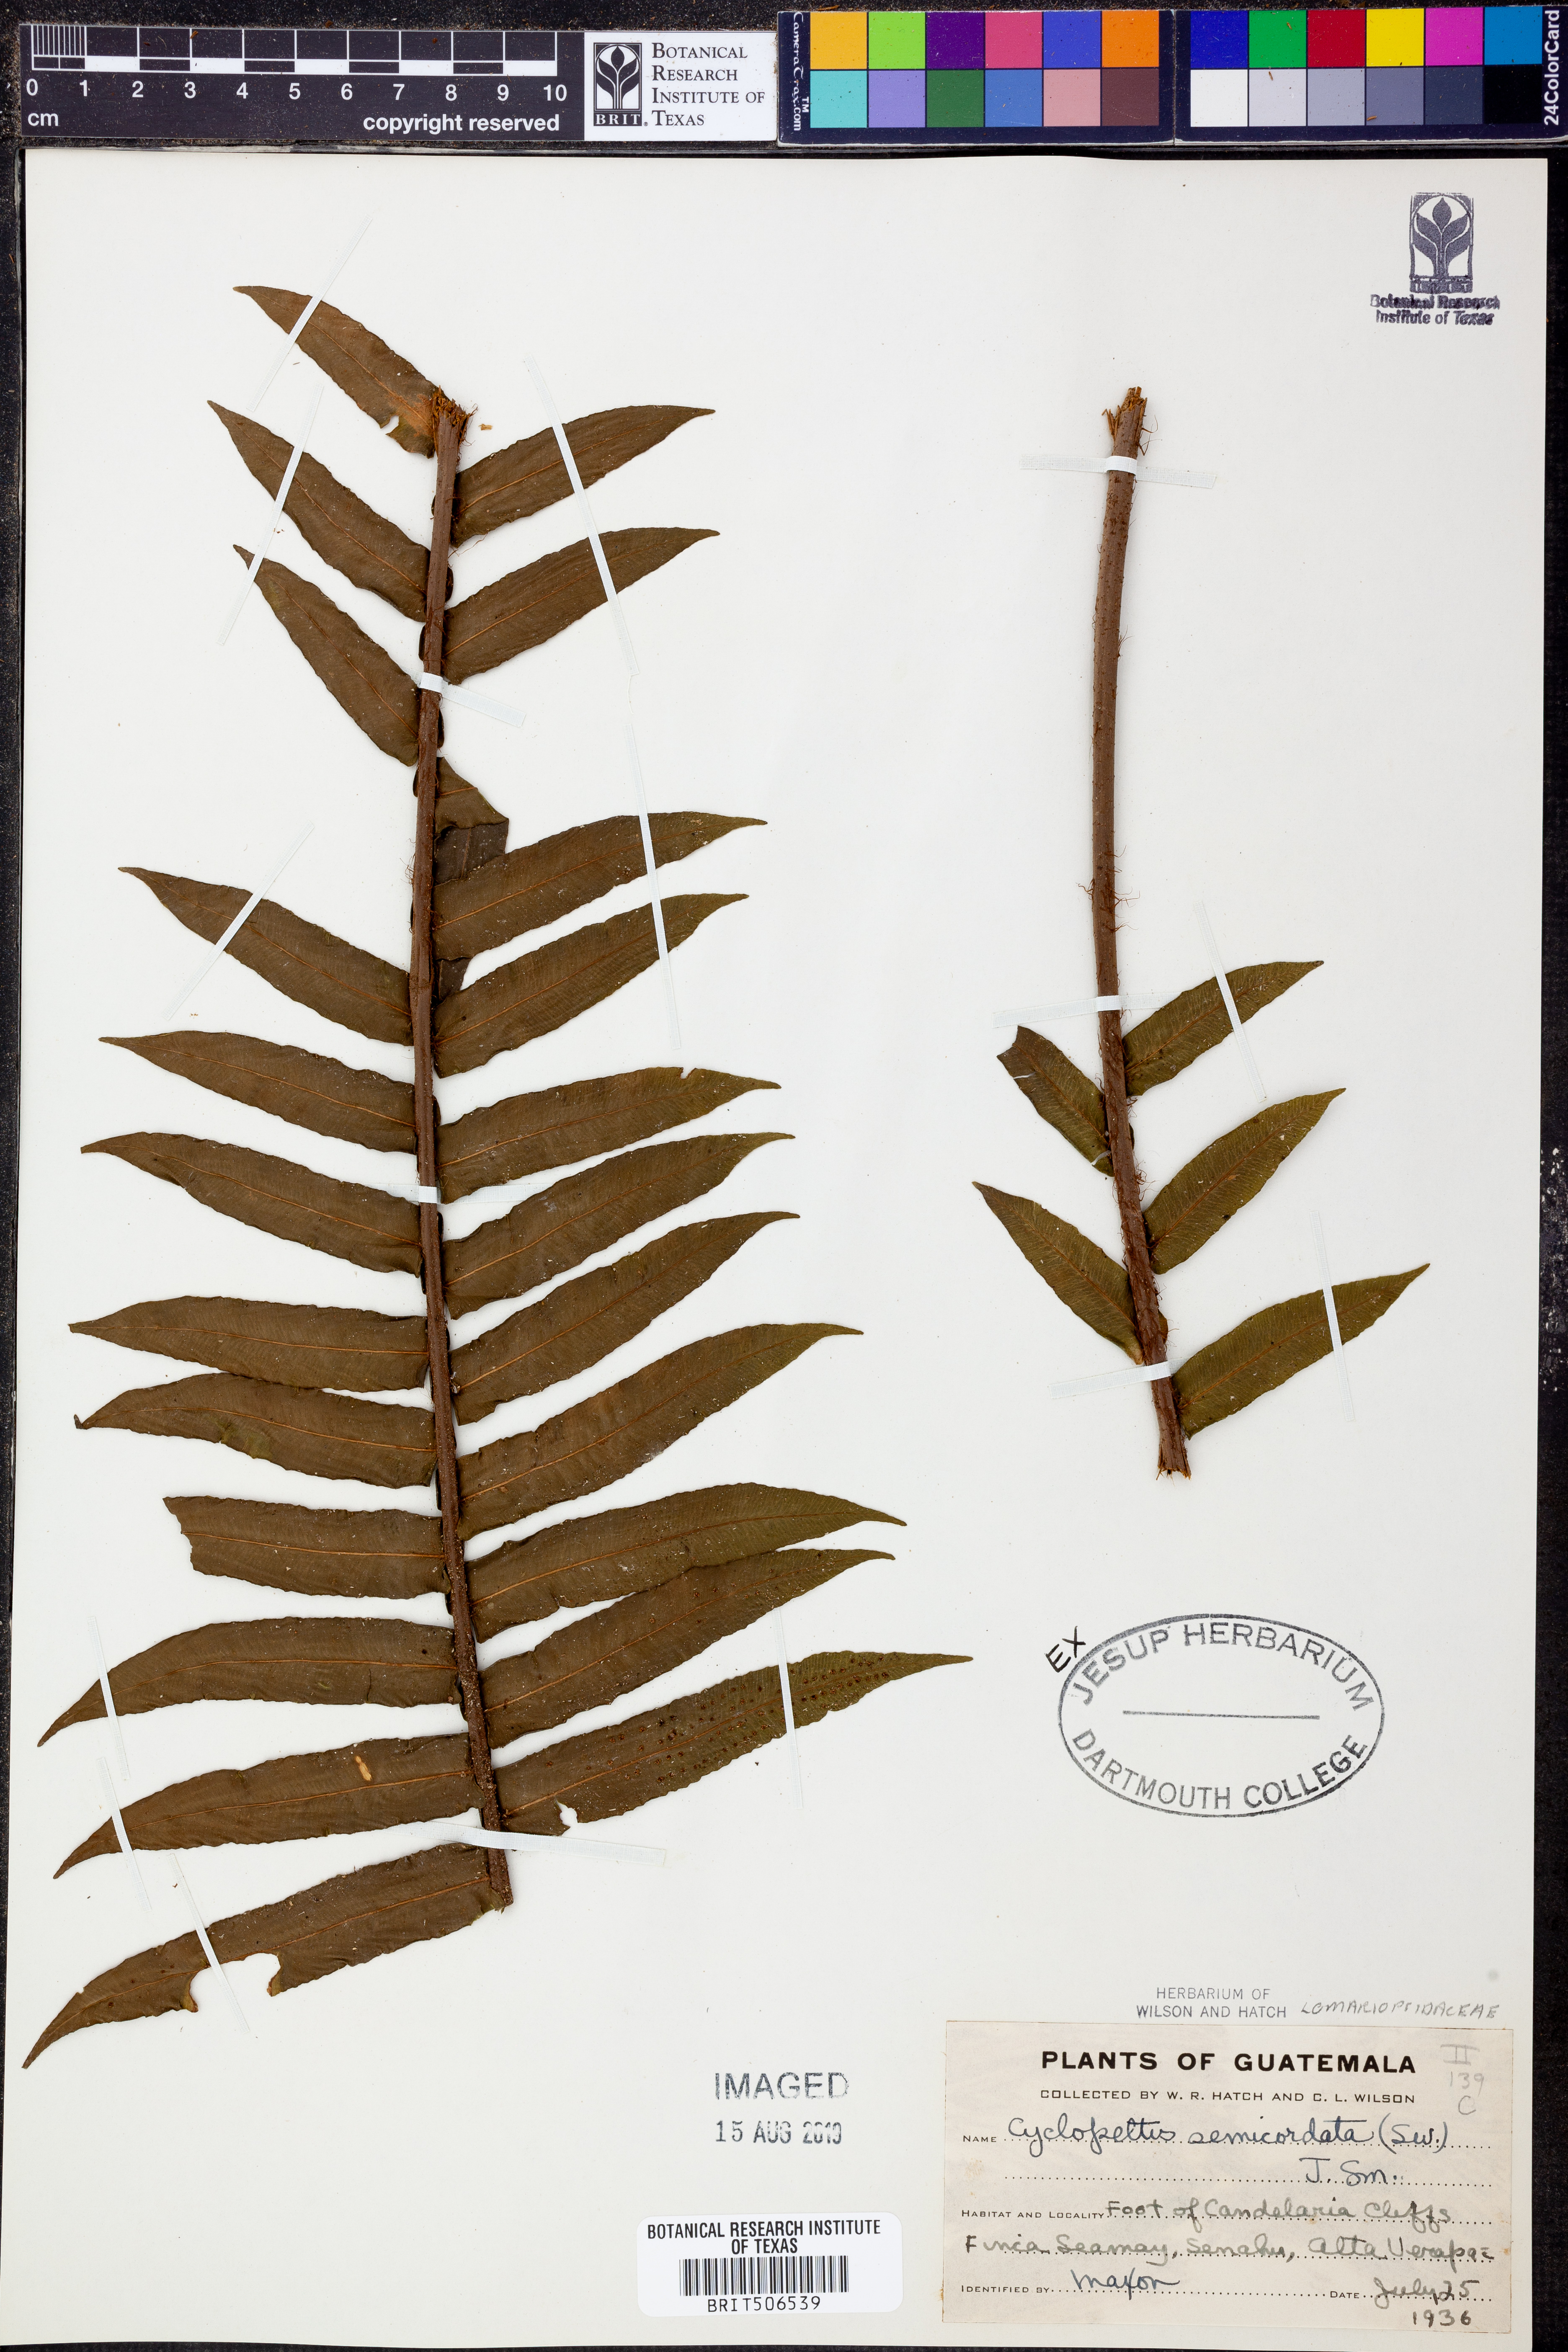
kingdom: Plantae
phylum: Tracheophyta
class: Polypodiopsida
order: Polypodiales
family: Lomariopsidaceae
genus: Cyclopeltis
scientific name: Cyclopeltis semicordata
